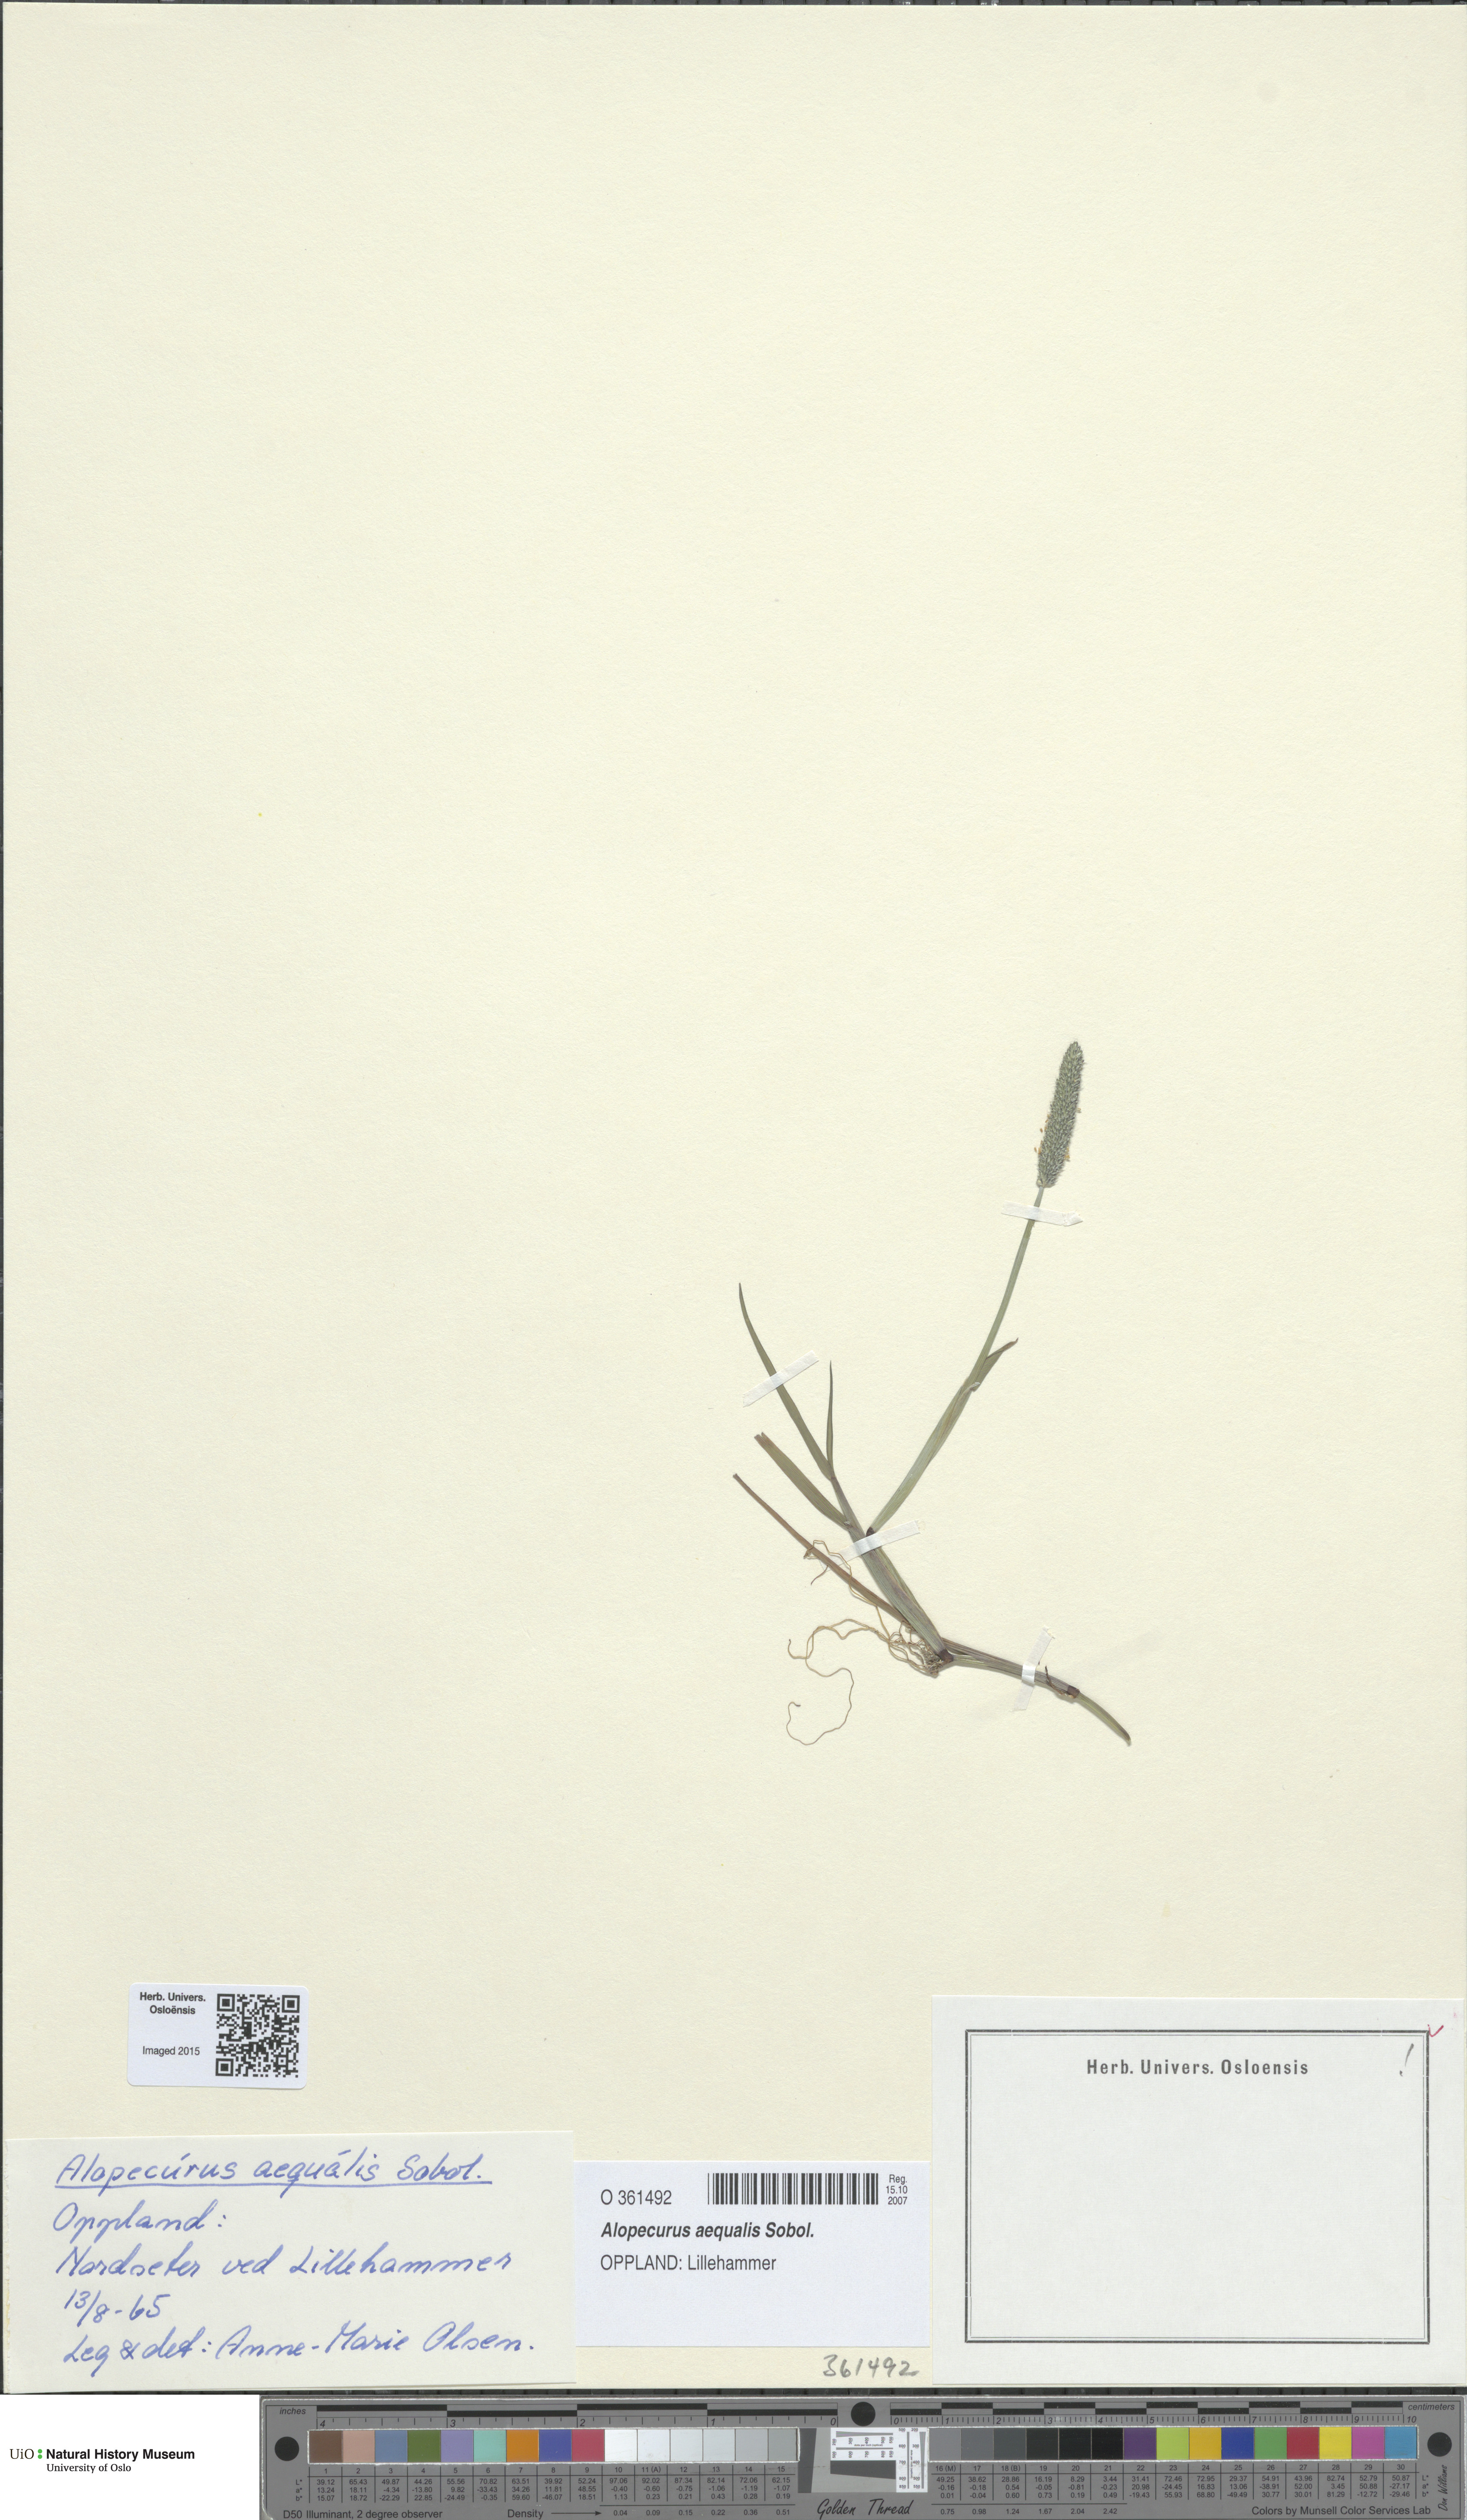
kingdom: Plantae
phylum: Tracheophyta
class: Liliopsida
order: Poales
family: Poaceae
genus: Alopecurus
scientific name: Alopecurus aequalis
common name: Orange foxtail
